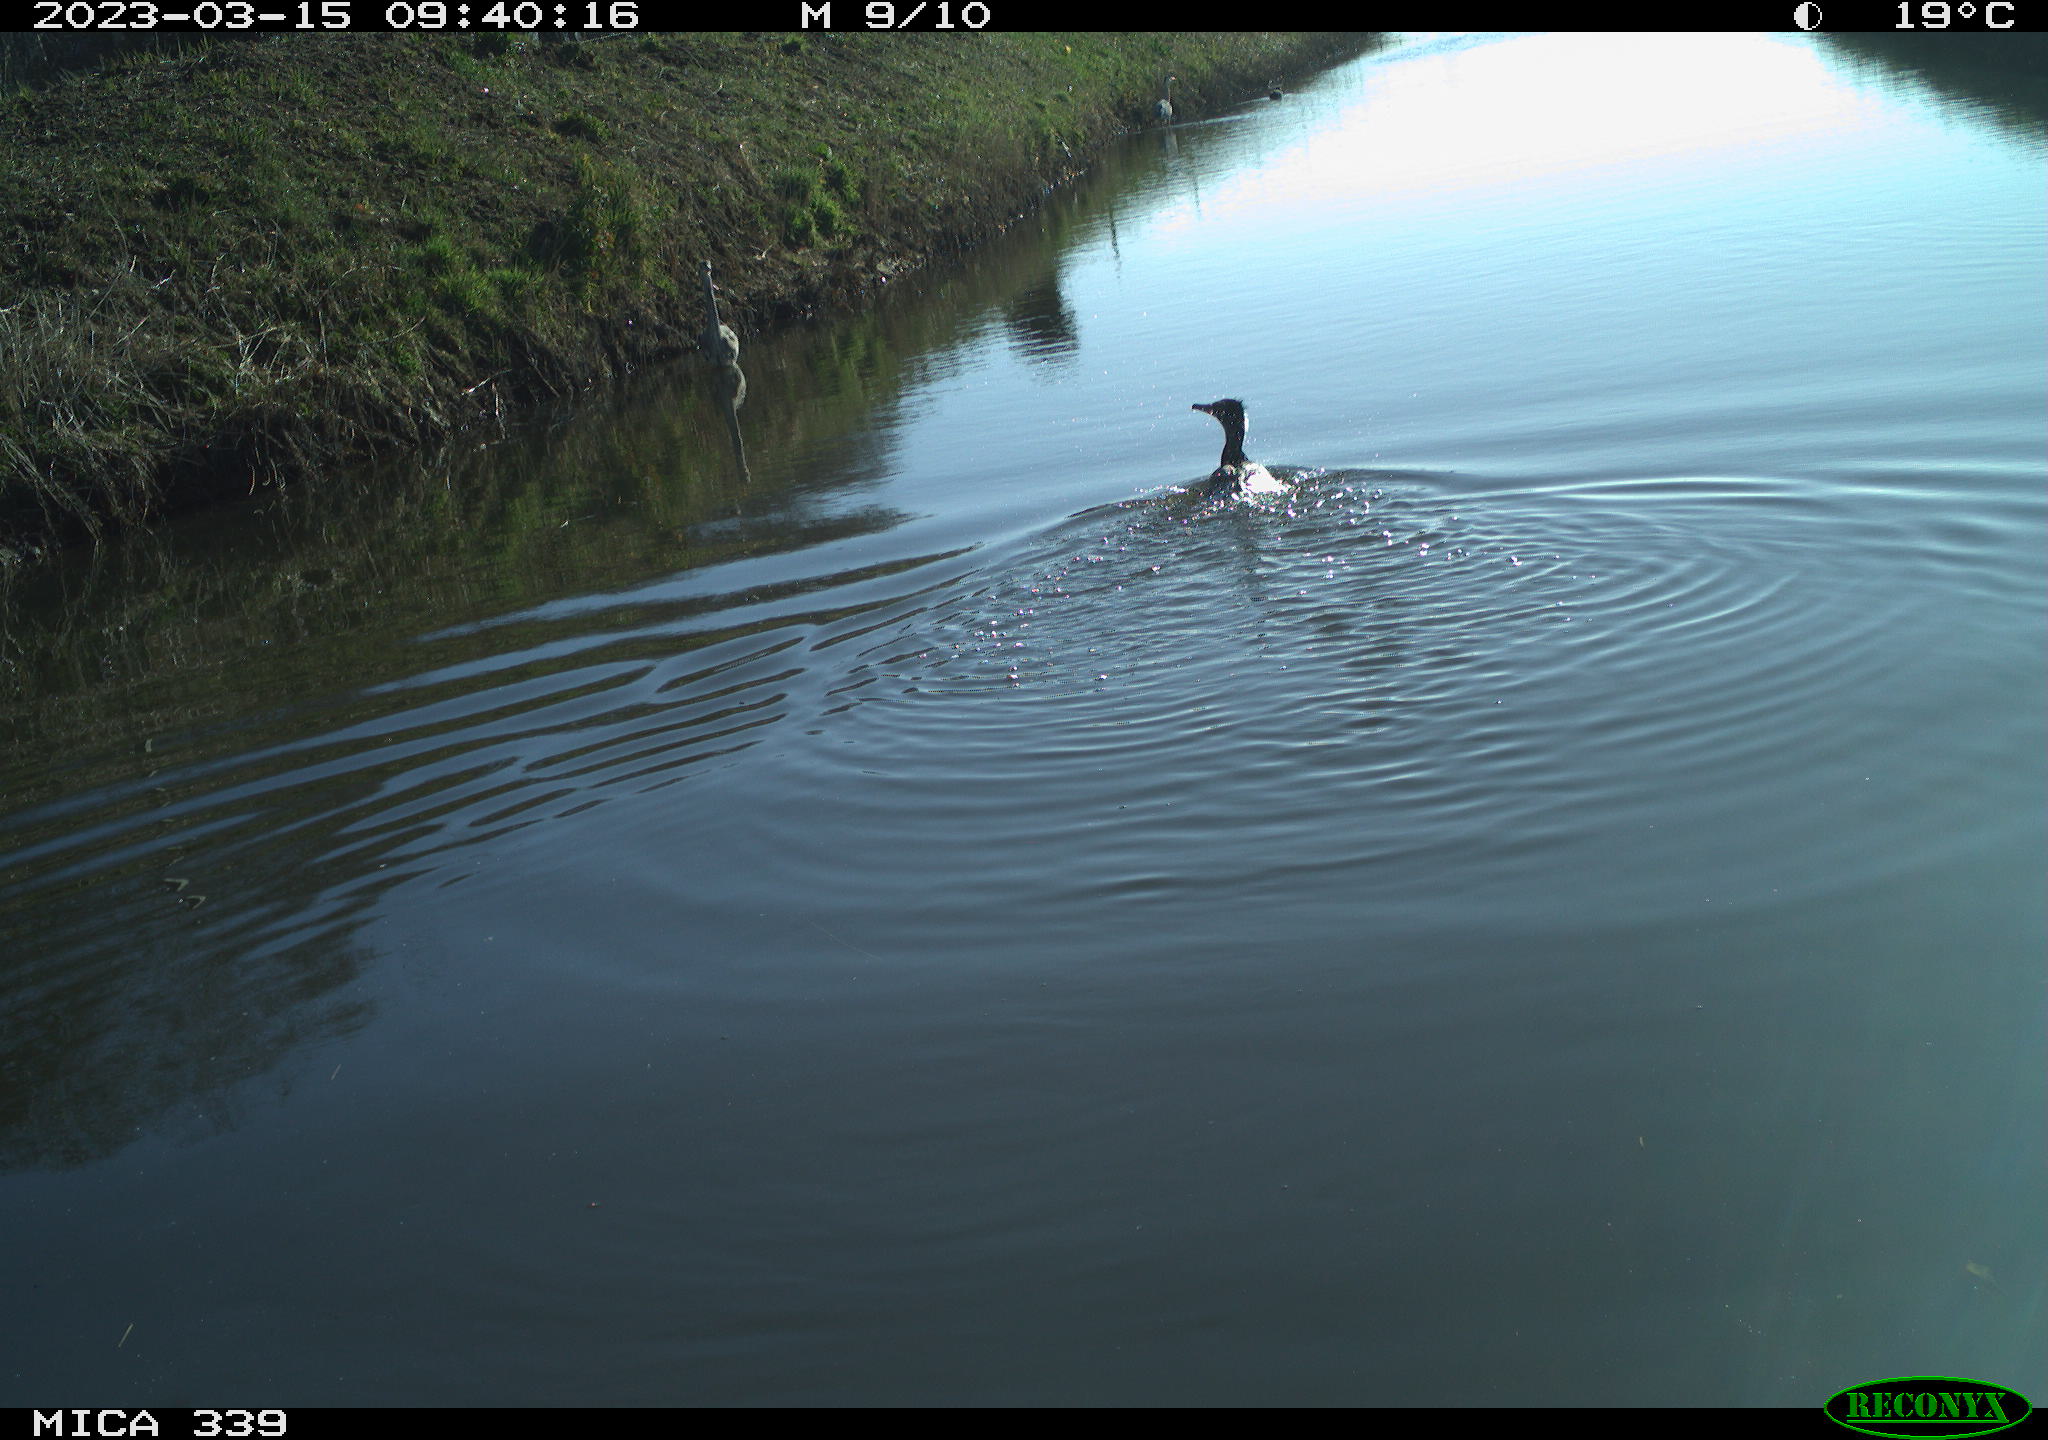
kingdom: Animalia
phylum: Chordata
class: Aves
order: Pelecaniformes
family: Ardeidae
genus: Ardea
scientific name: Ardea cinerea
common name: Grey heron
